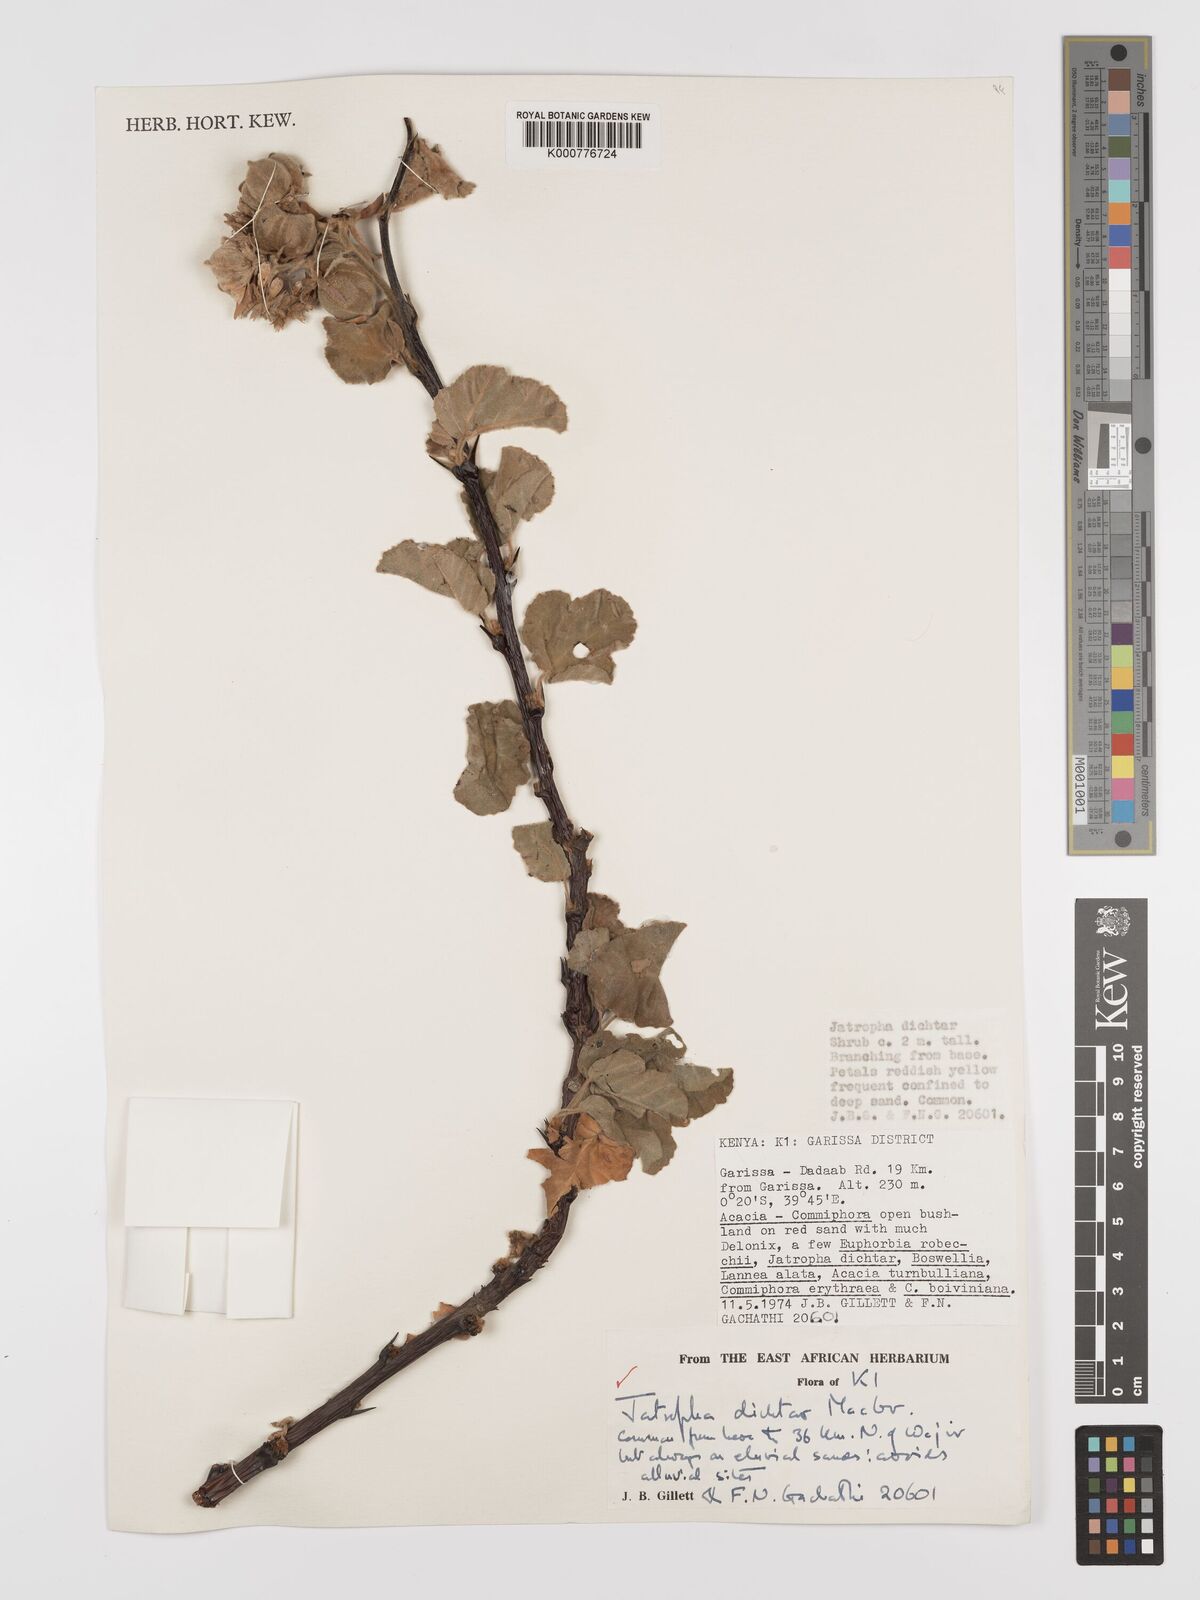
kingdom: Plantae
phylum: Tracheophyta
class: Magnoliopsida
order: Malpighiales
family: Euphorbiaceae
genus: Jatropha
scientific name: Jatropha dichtar
